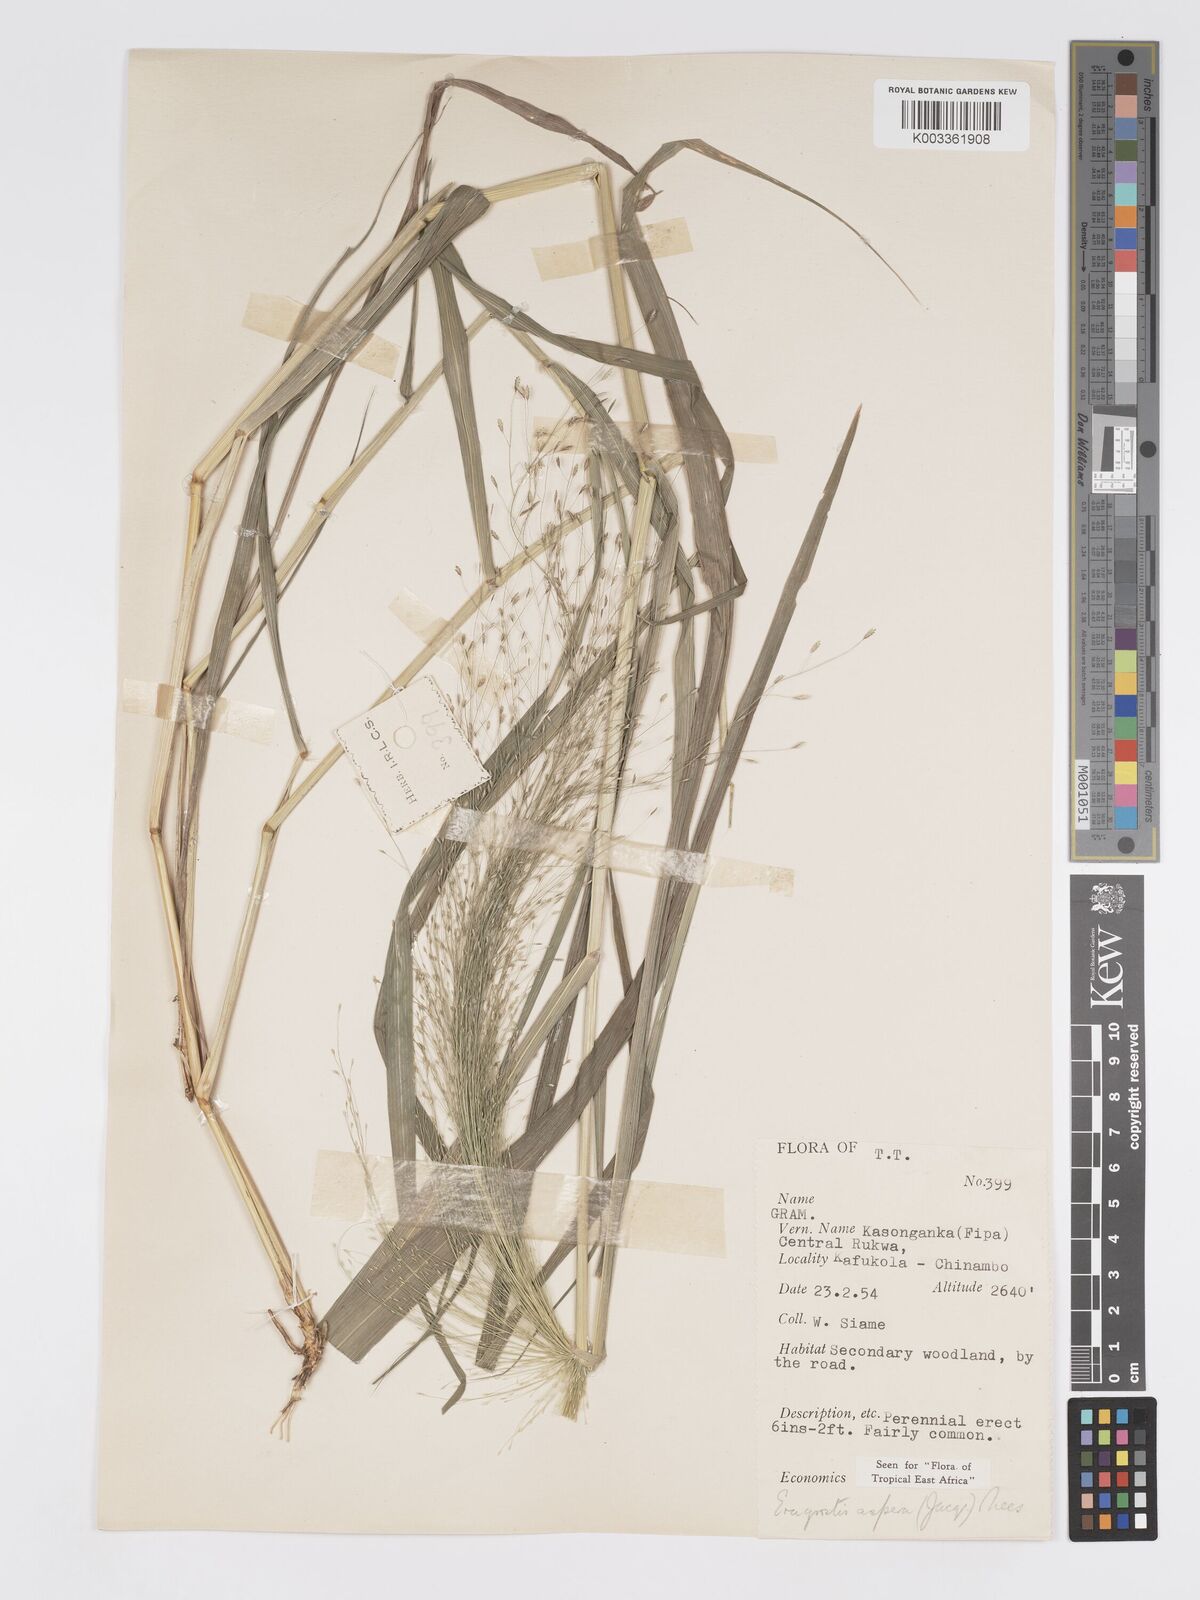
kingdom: Plantae
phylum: Tracheophyta
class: Liliopsida
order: Poales
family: Poaceae
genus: Eragrostis
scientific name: Eragrostis aspera
